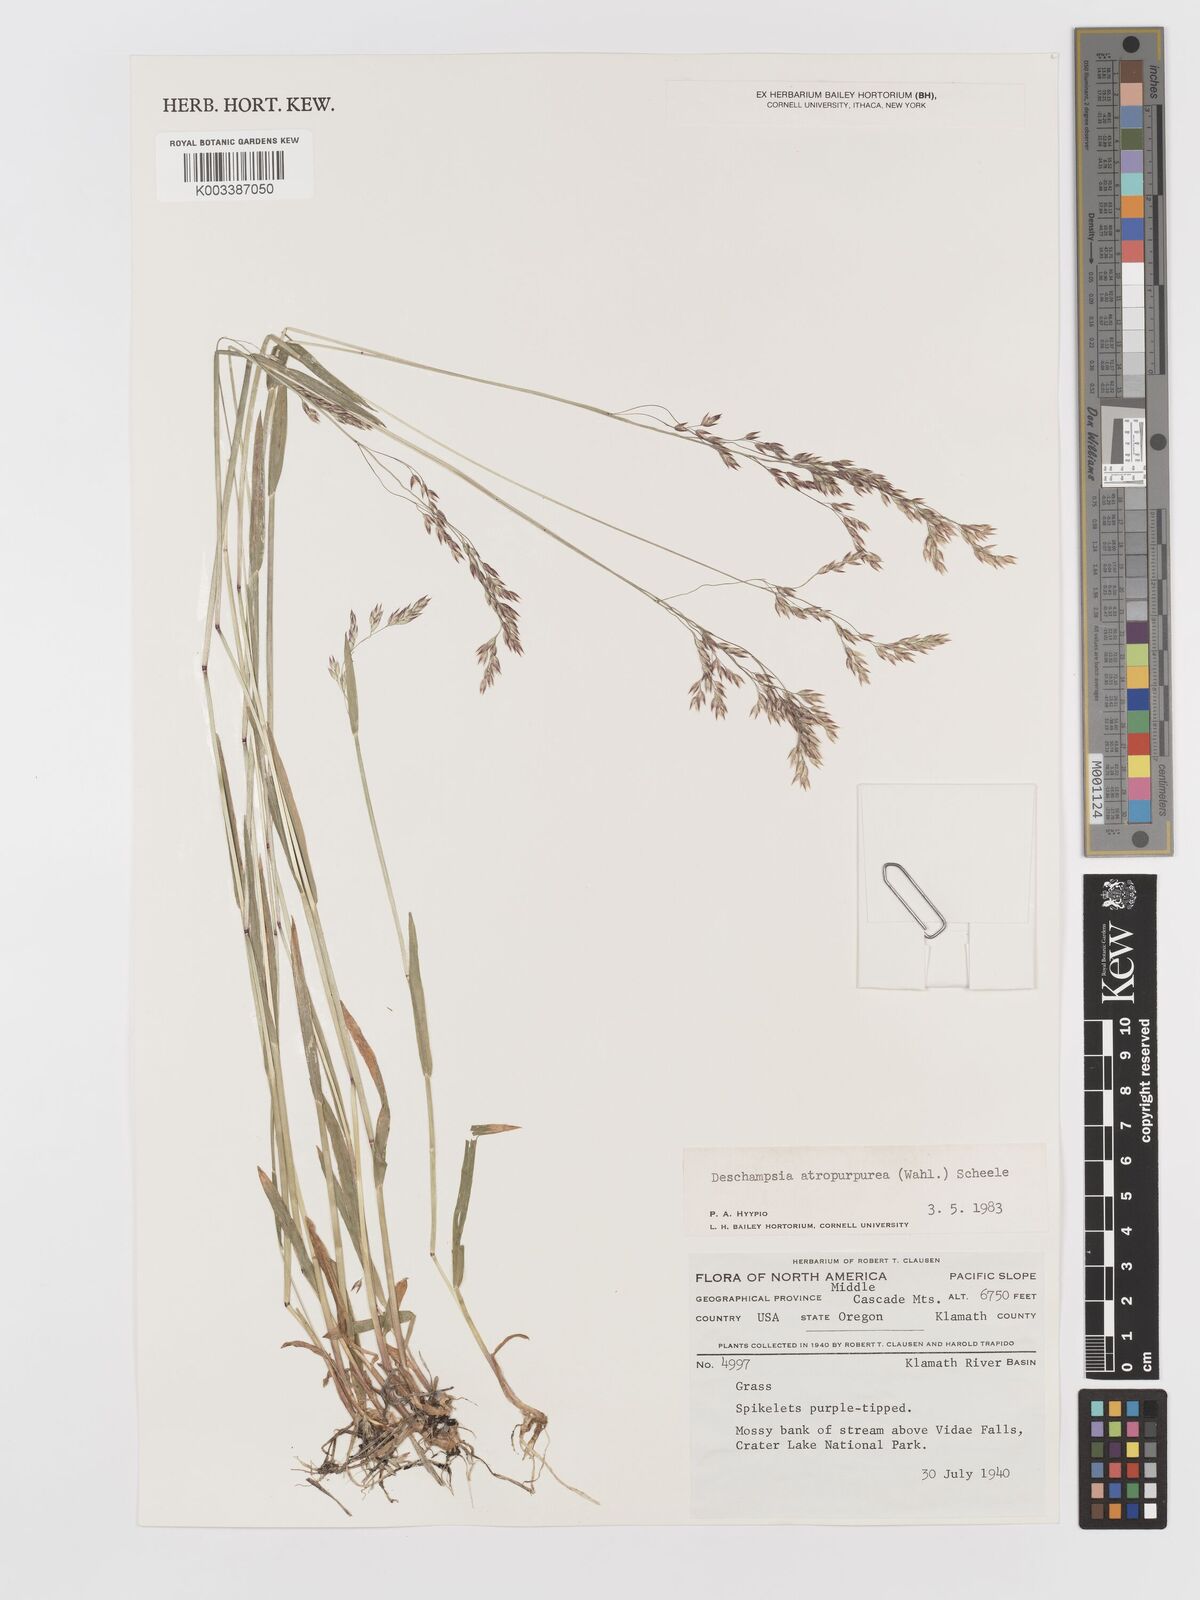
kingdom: Plantae
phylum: Tracheophyta
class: Liliopsida
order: Poales
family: Poaceae
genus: Vahlodea
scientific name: Vahlodea atropurpurea
